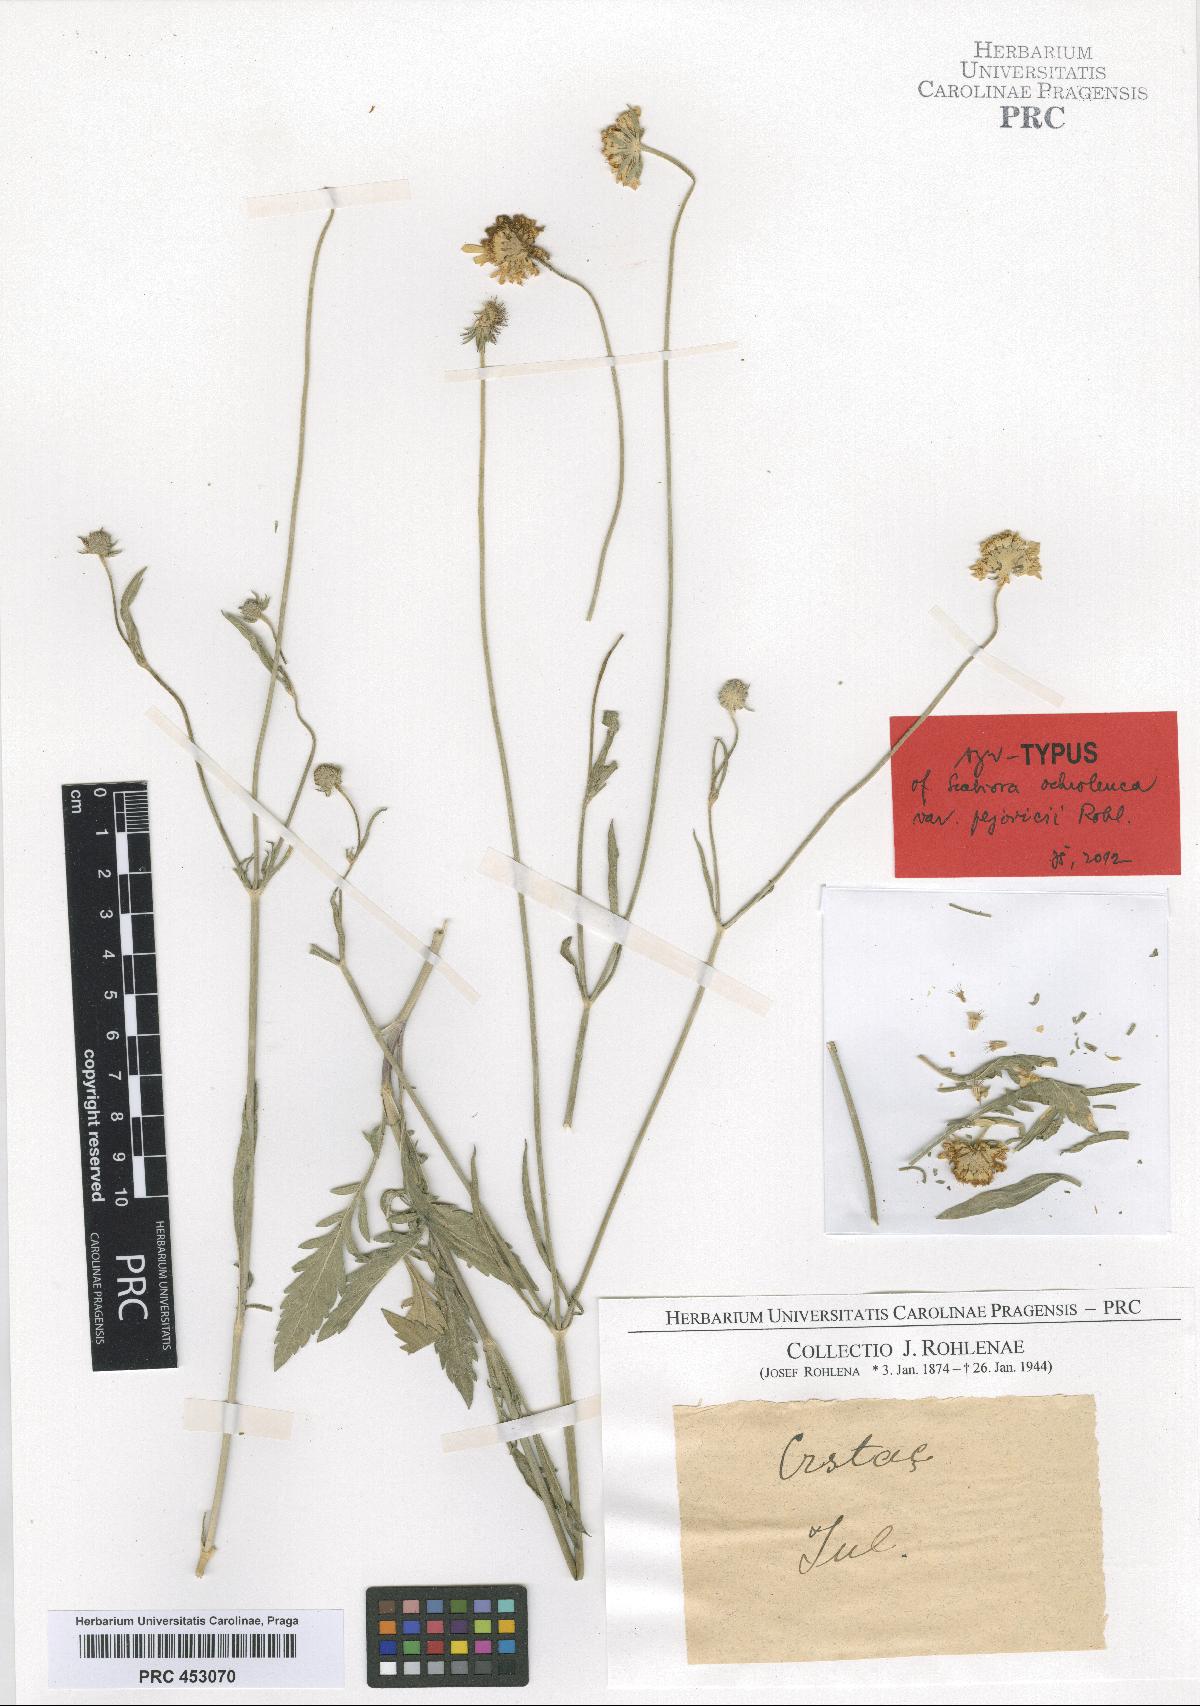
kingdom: Plantae
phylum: Tracheophyta
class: Magnoliopsida
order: Dipsacales
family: Caprifoliaceae
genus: Scabiosa
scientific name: Scabiosa ochroleuca
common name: Cream pincushions
